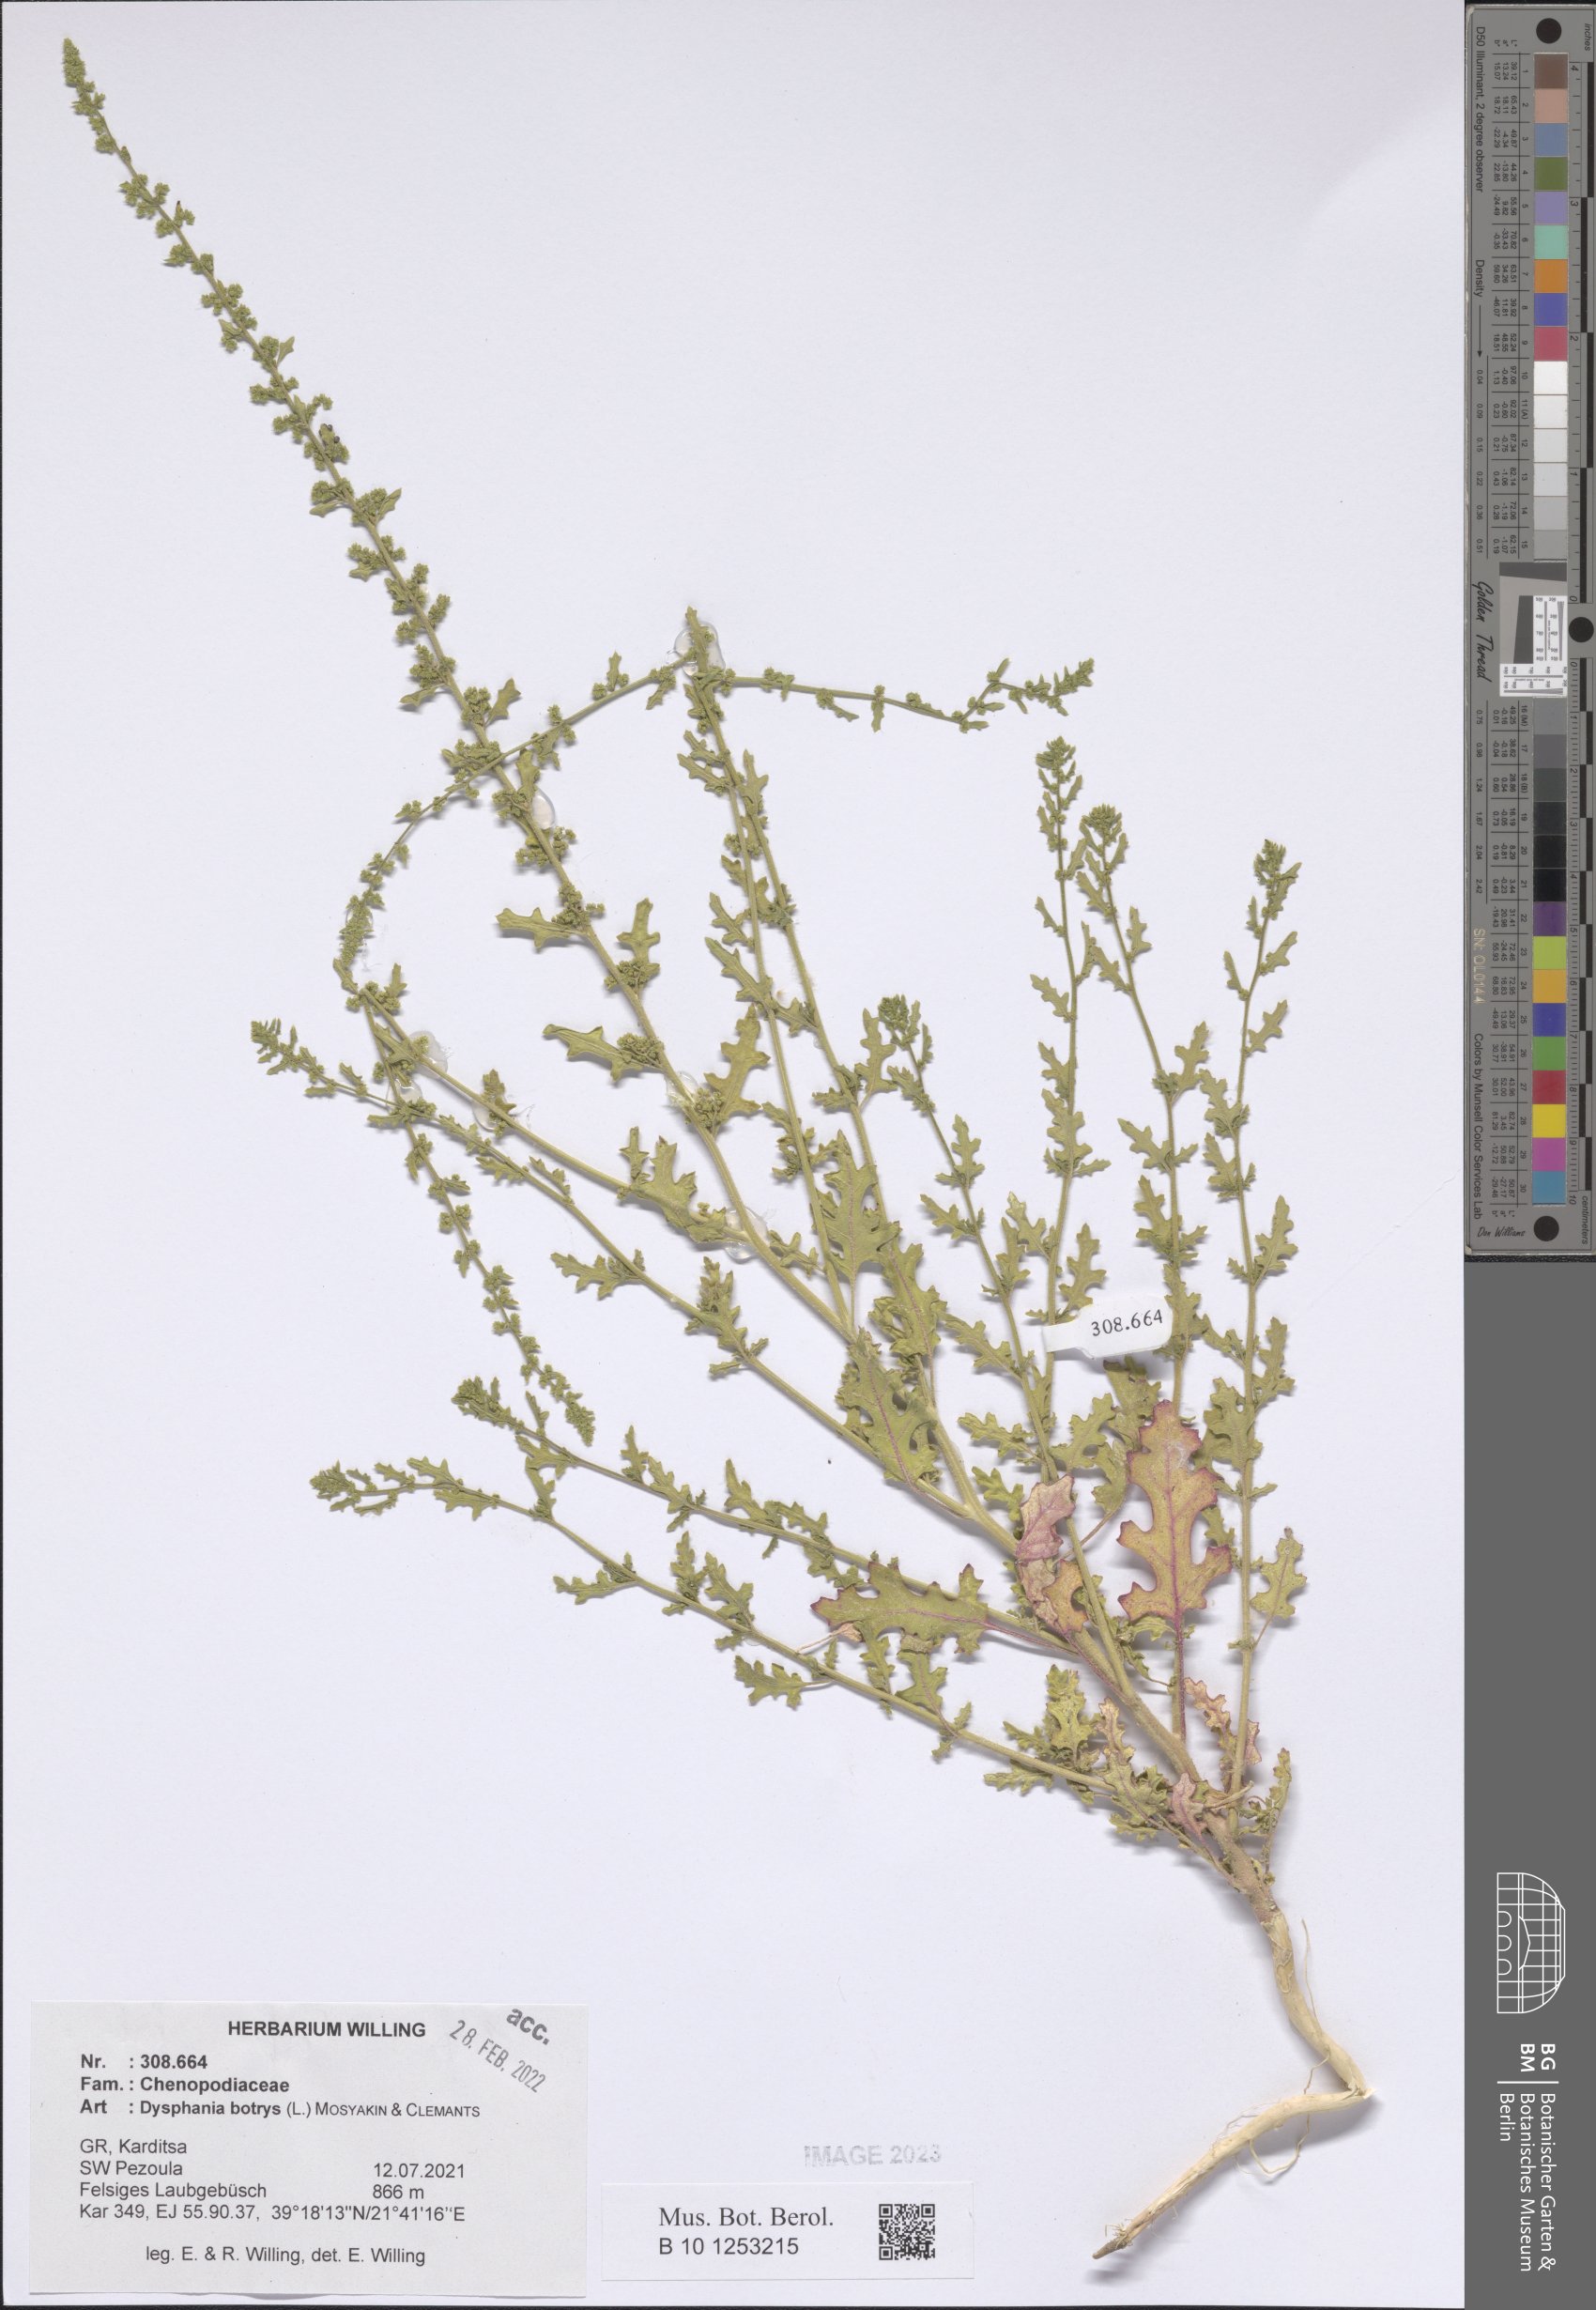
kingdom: Plantae
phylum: Tracheophyta
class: Magnoliopsida
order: Caryophyllales
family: Amaranthaceae
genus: Dysphania
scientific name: Dysphania botrys
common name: Feather-geranium
